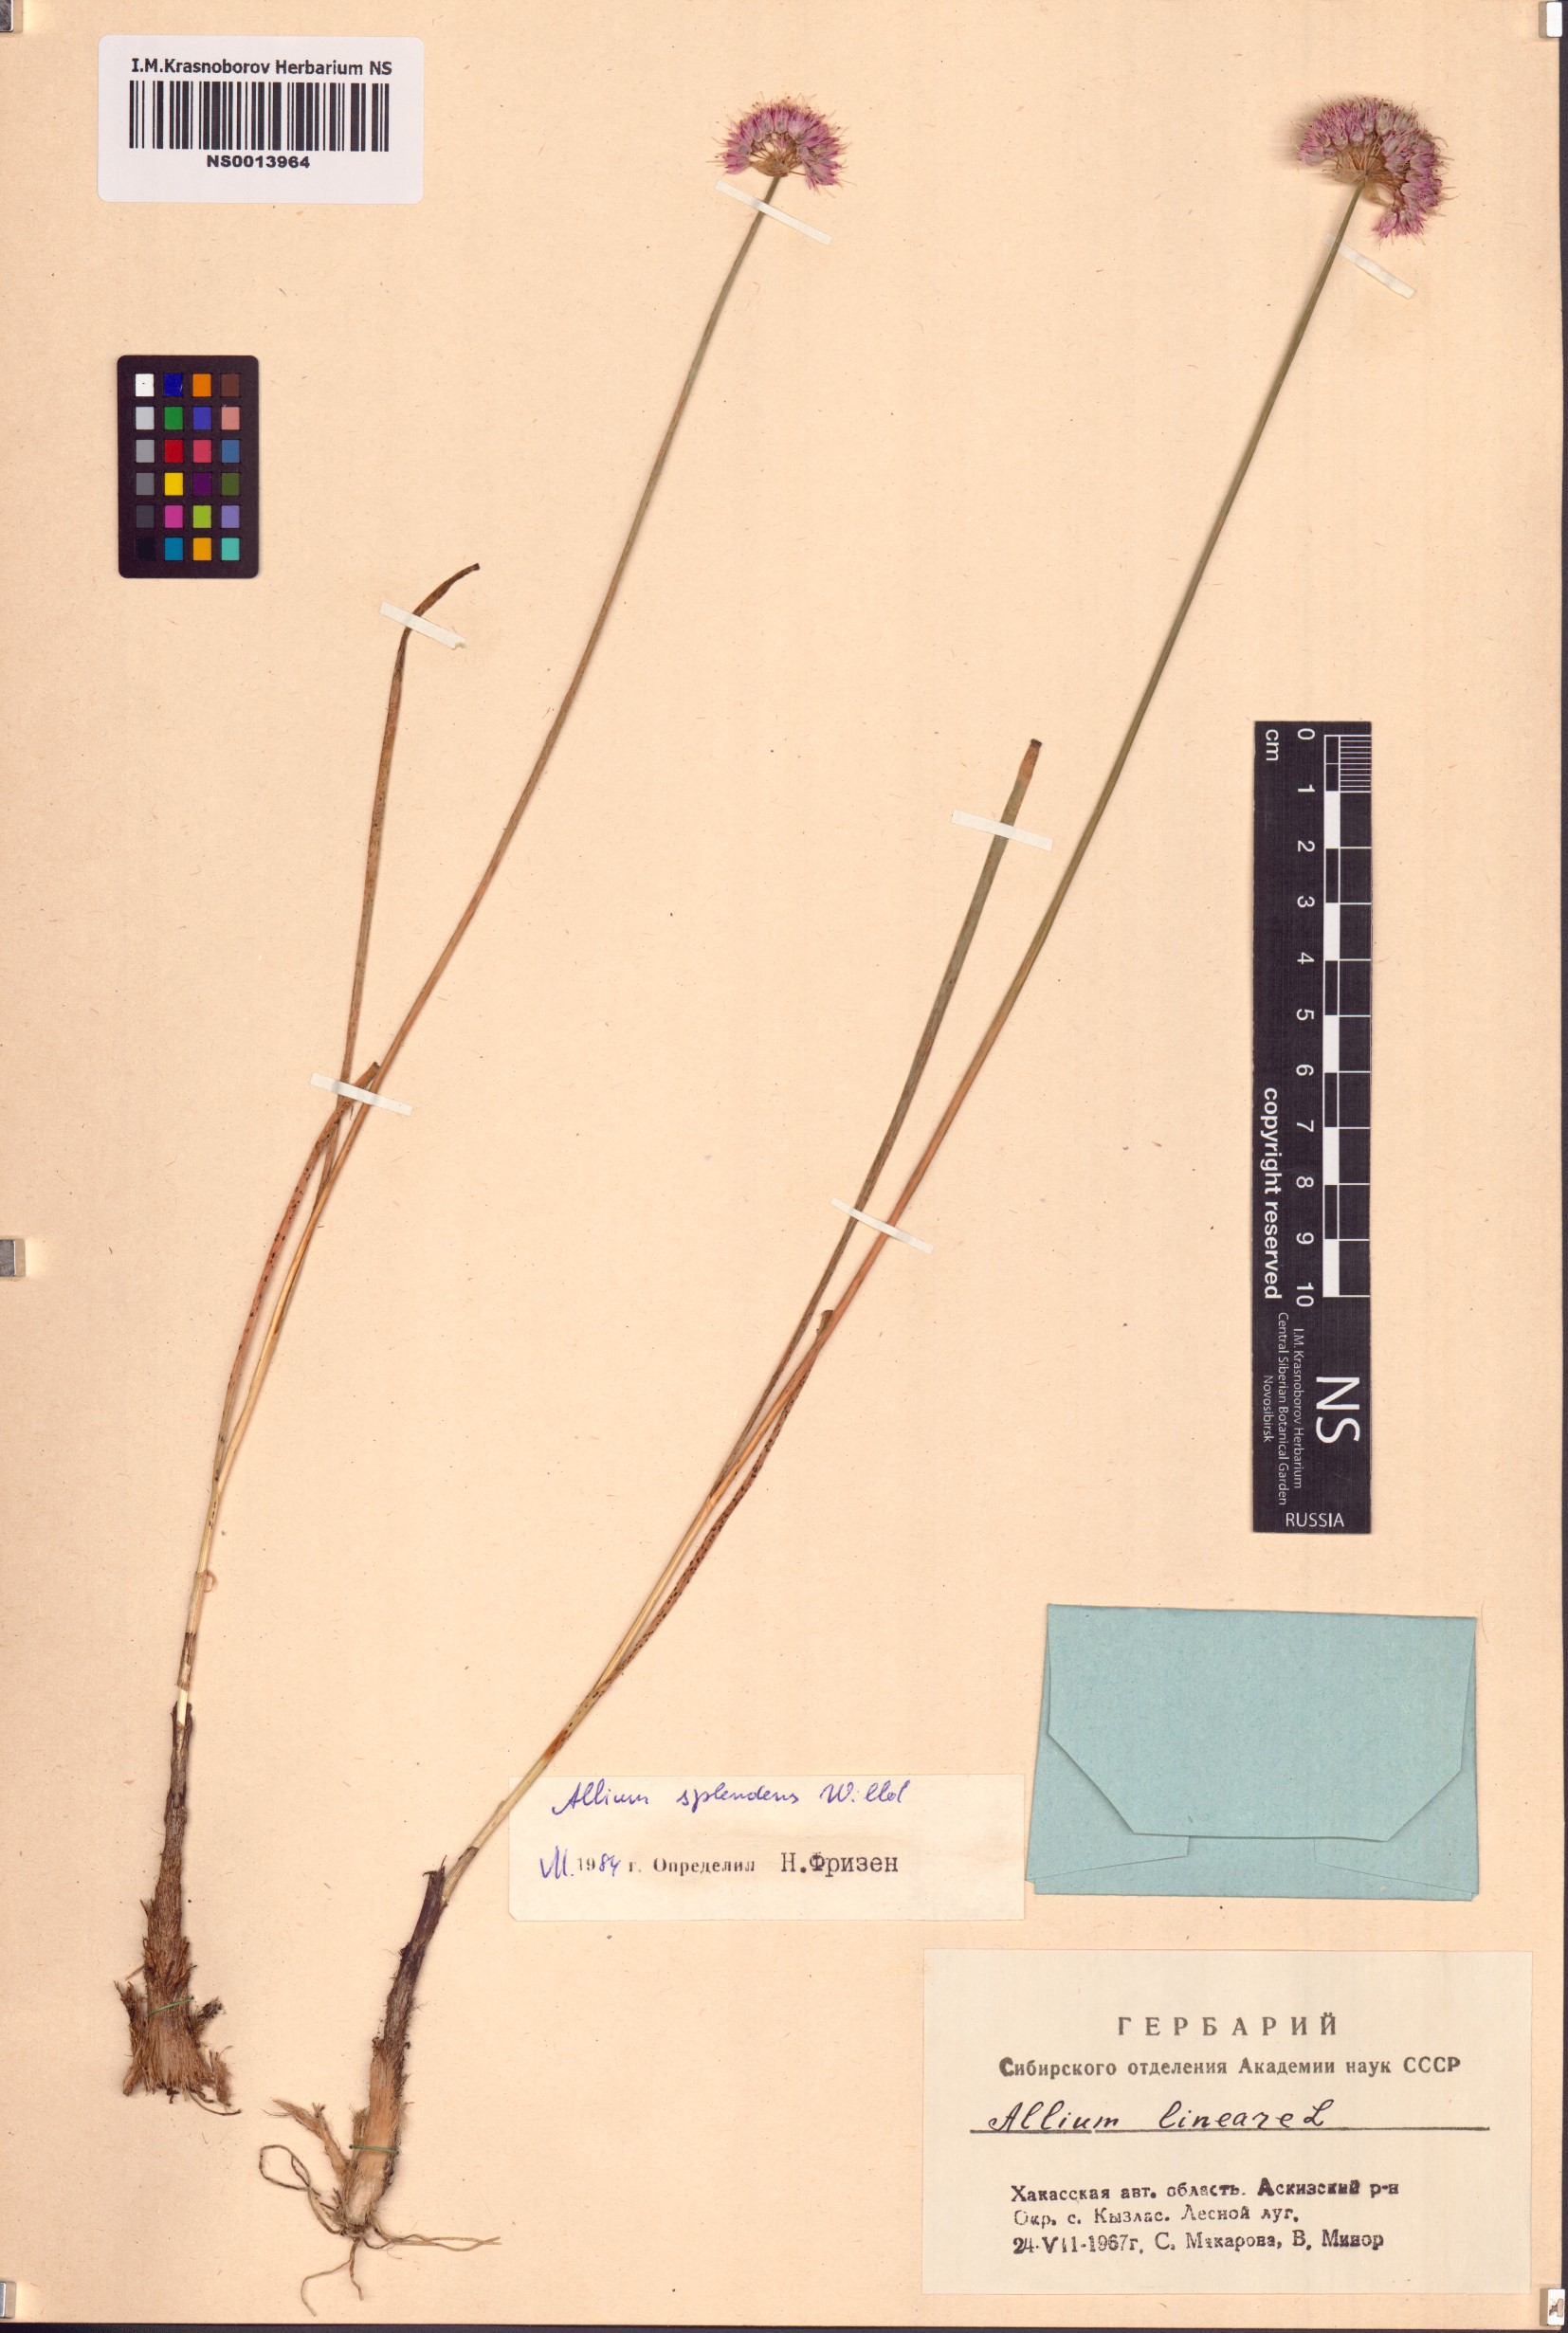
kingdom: Plantae
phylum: Tracheophyta
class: Liliopsida
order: Asparagales
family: Amaryllidaceae
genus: Allium
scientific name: Allium splendens
